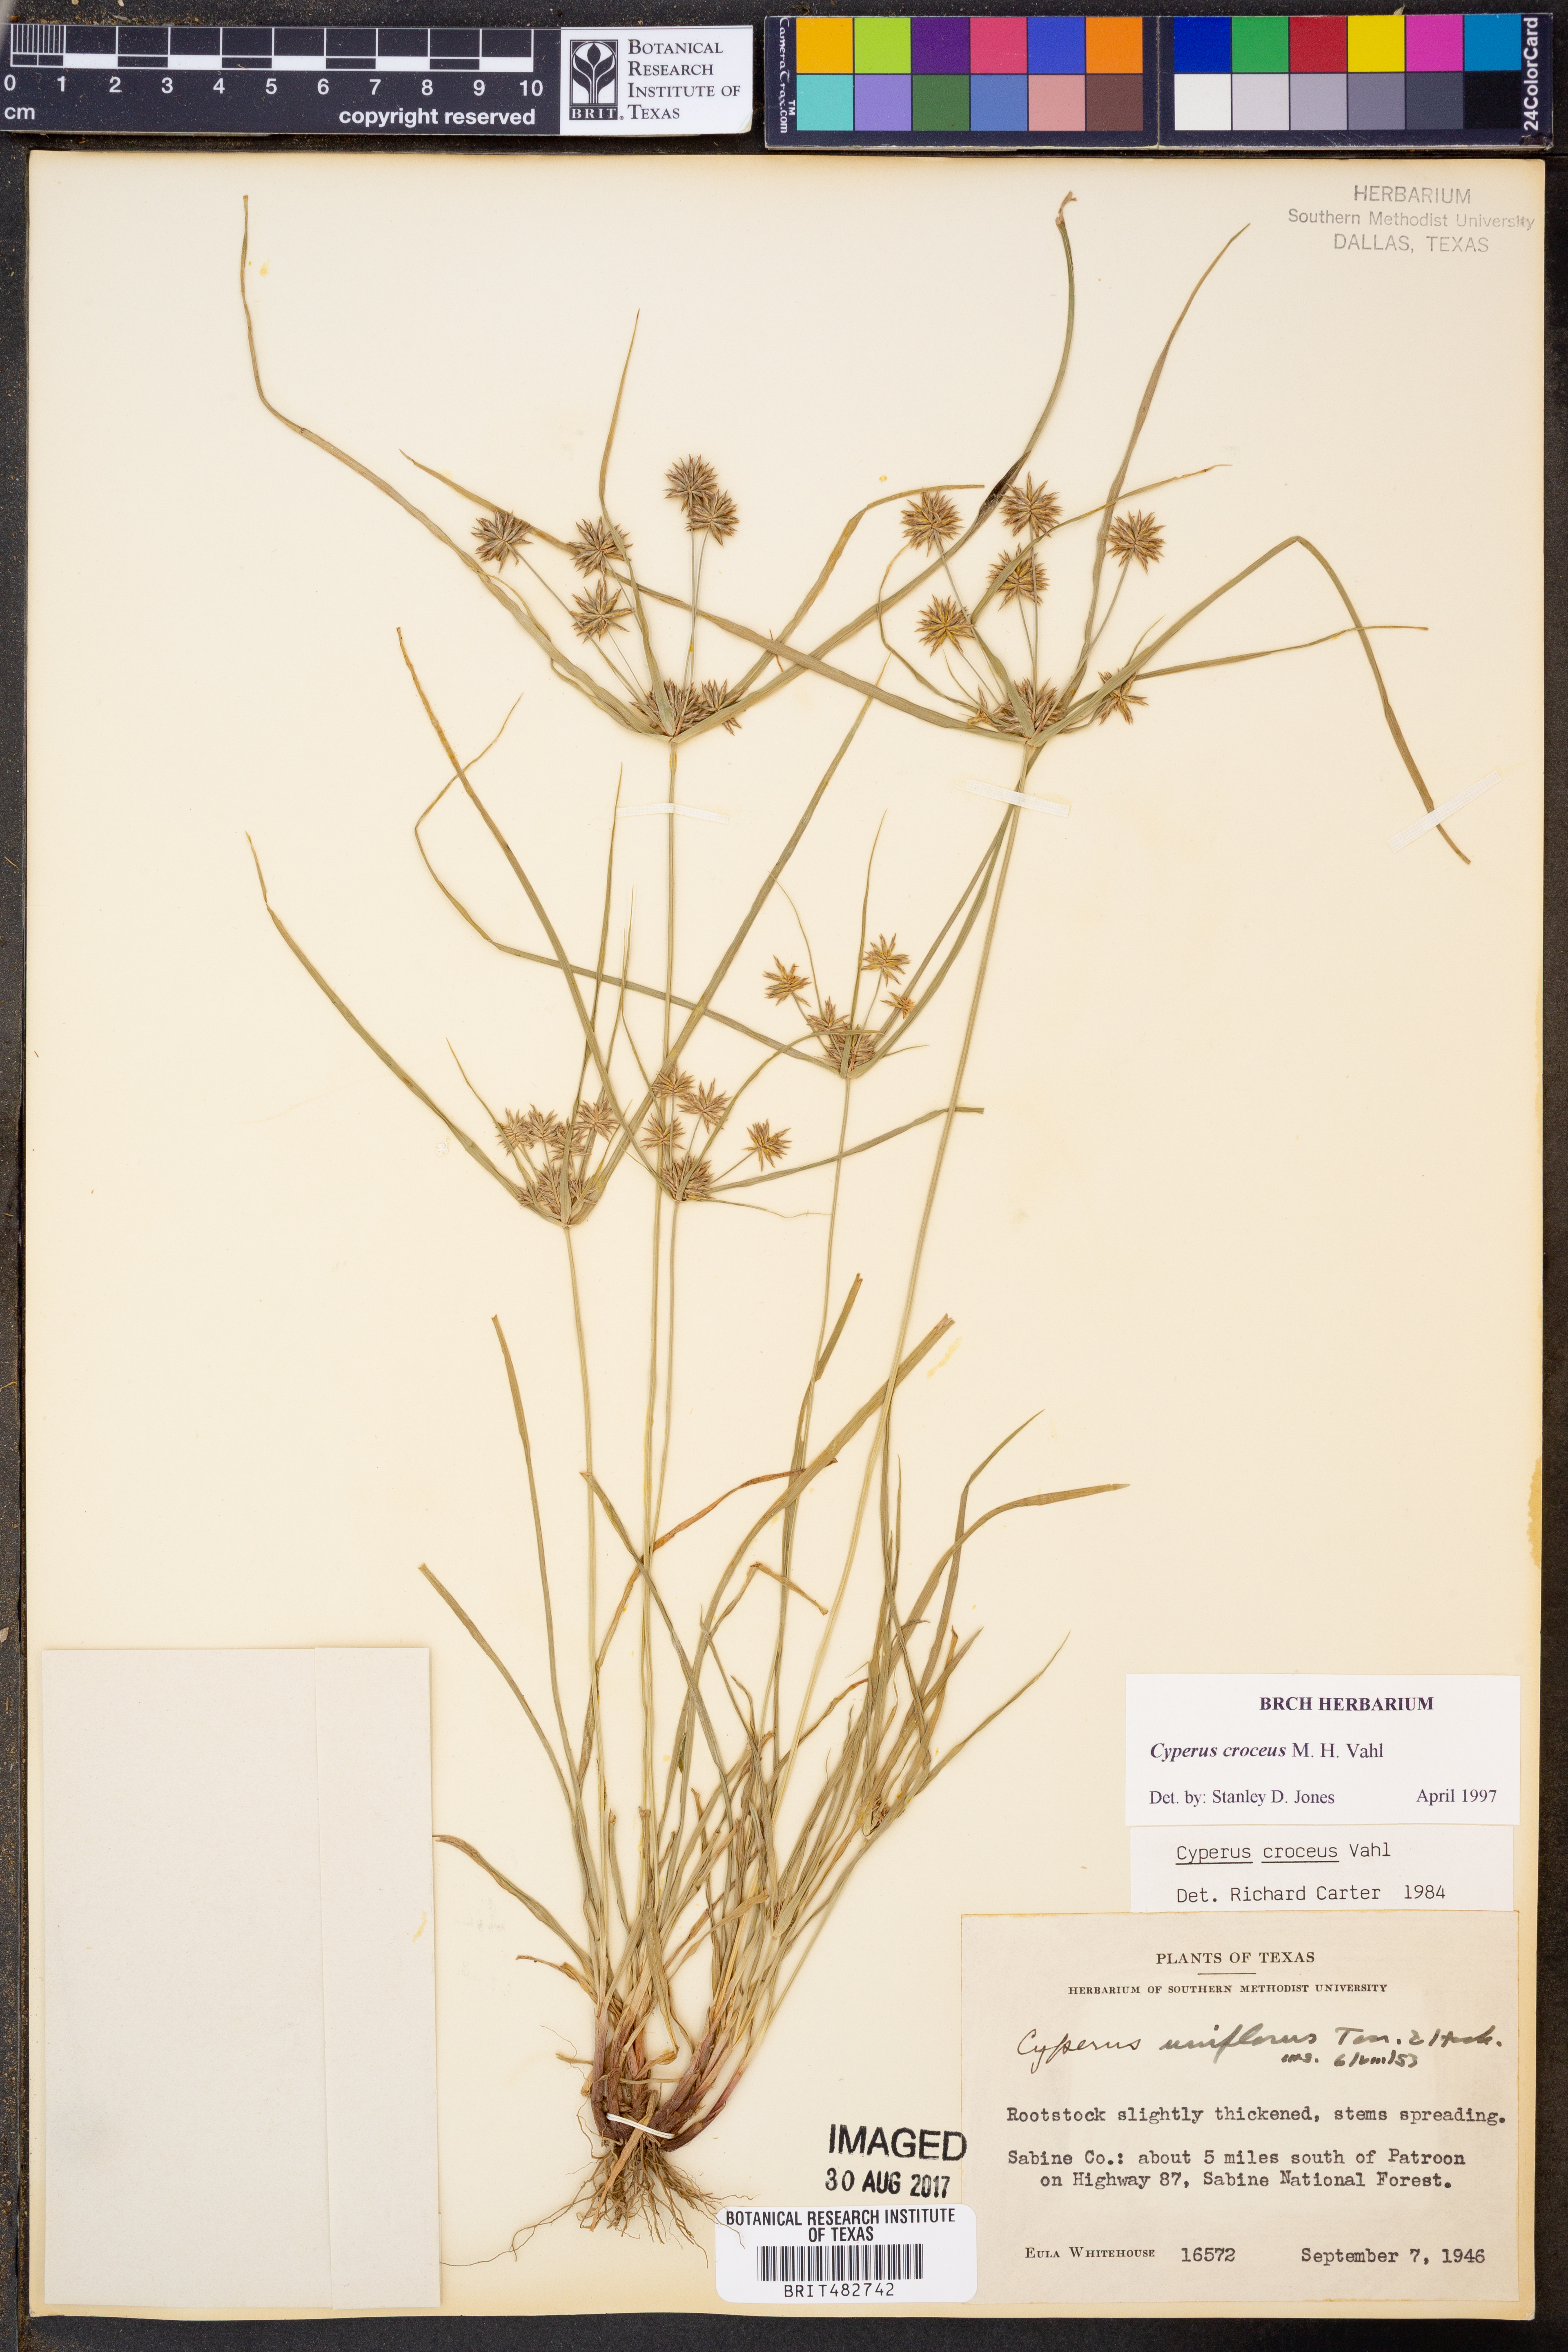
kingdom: Plantae
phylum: Tracheophyta
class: Liliopsida
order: Poales
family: Cyperaceae
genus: Cyperus
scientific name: Cyperus croceus
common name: Baldwin's flatsedge
